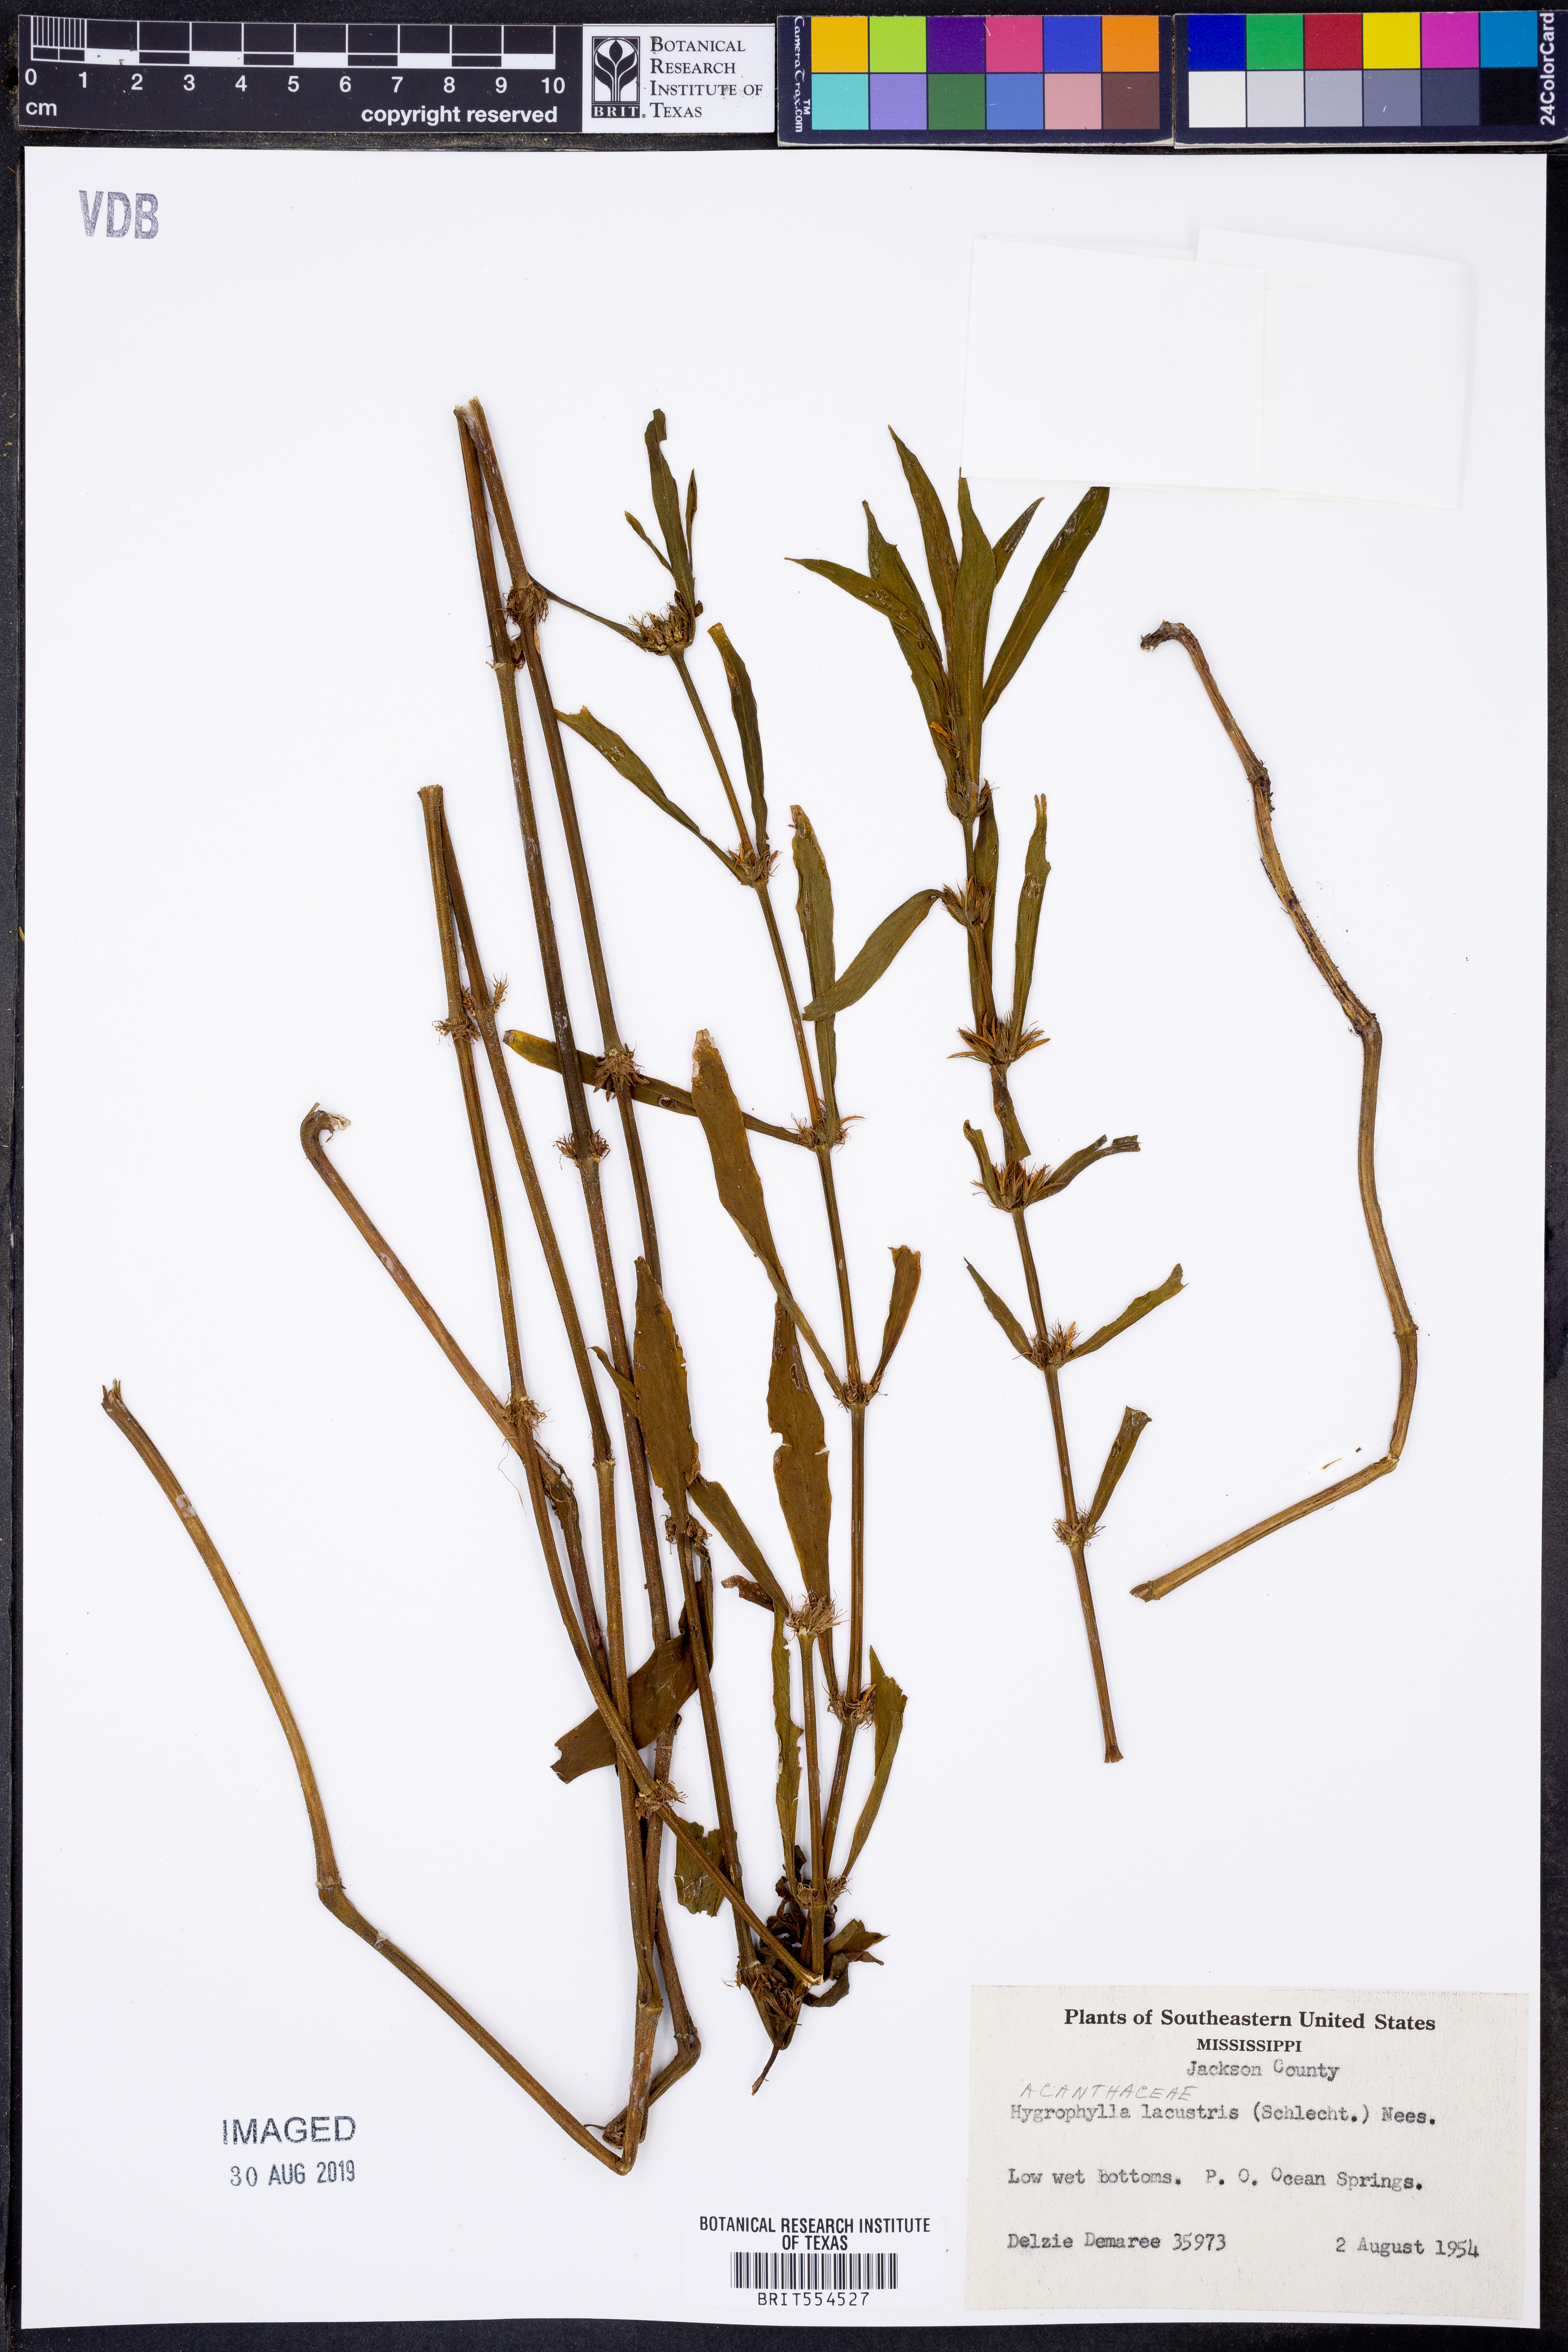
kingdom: Plantae
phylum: Tracheophyta
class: Magnoliopsida
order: Lamiales
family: Acanthaceae
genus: Hygrophila
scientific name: Hygrophila costata
